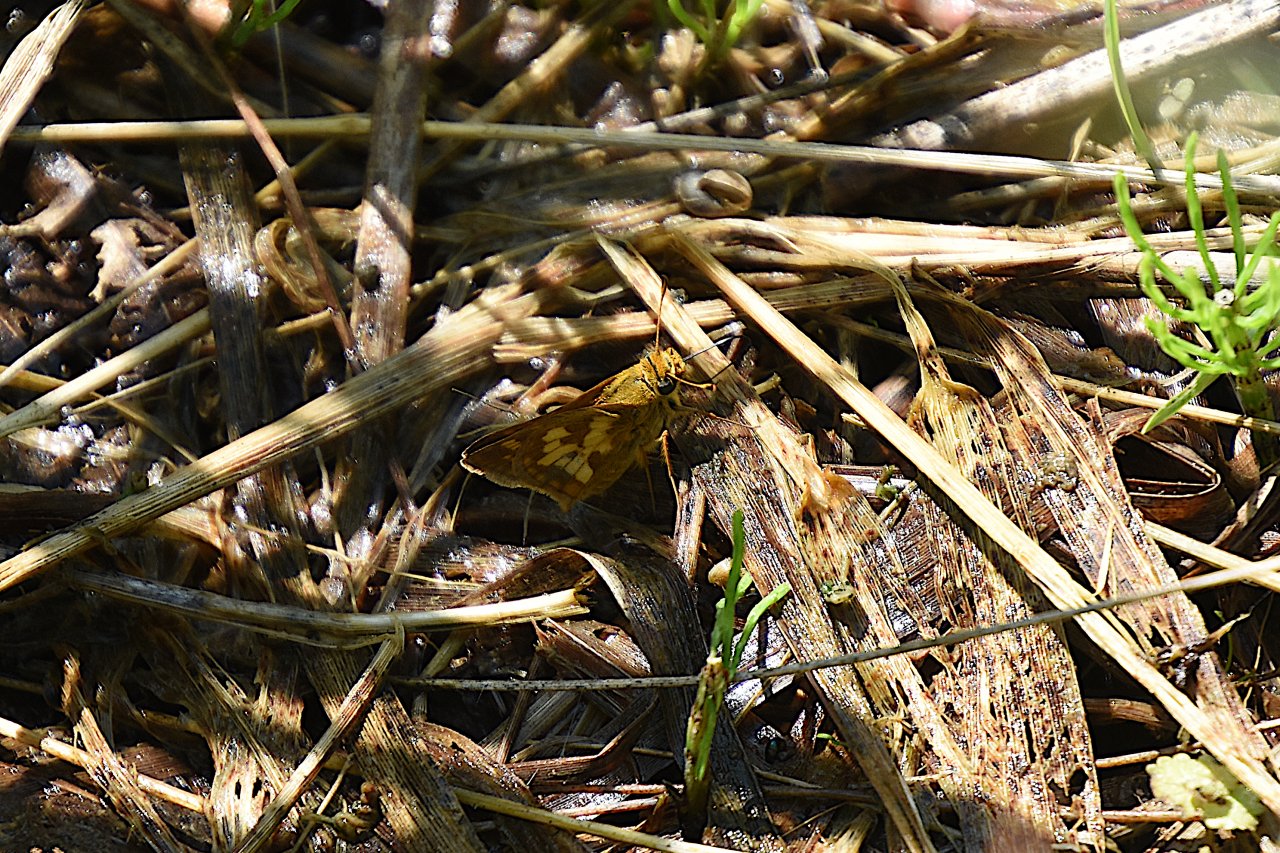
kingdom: Animalia
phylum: Arthropoda
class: Insecta
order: Lepidoptera
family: Hesperiidae
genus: Polites
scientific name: Polites coras
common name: Peck's Skipper
